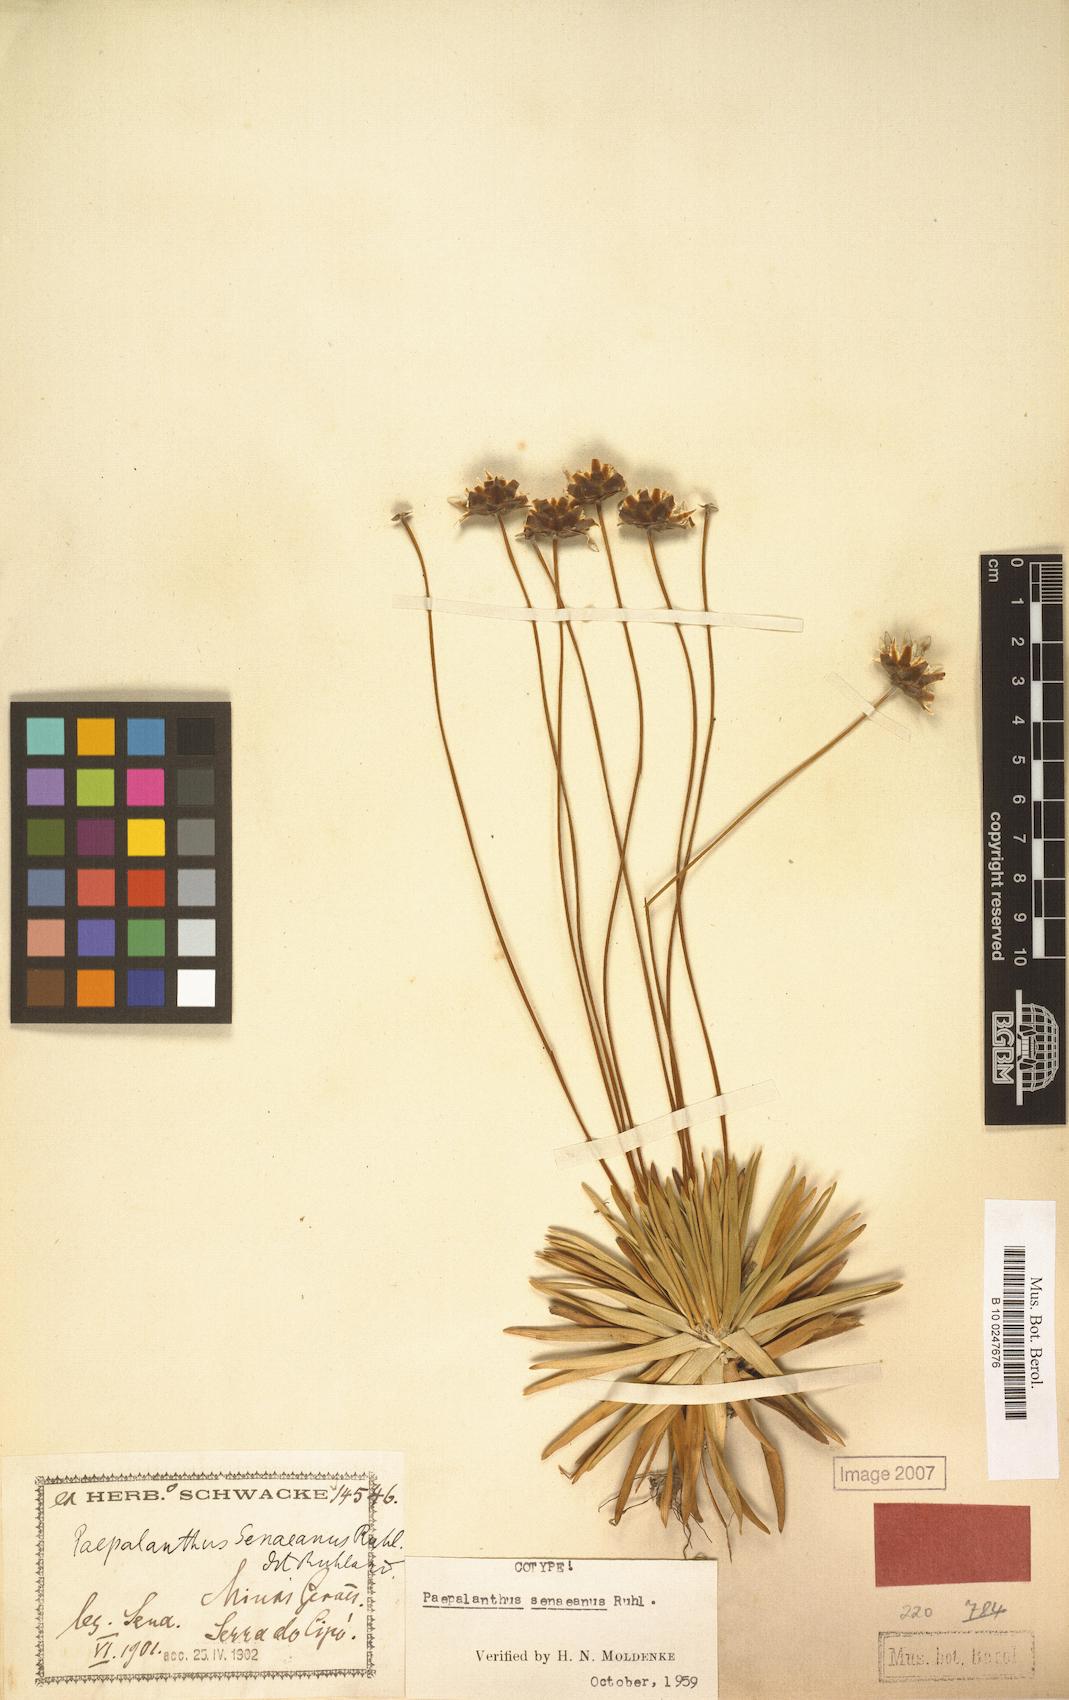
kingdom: Plantae
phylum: Tracheophyta
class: Liliopsida
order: Poales
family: Eriocaulaceae
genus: Paepalanthus
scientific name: Paepalanthus senaeanus
